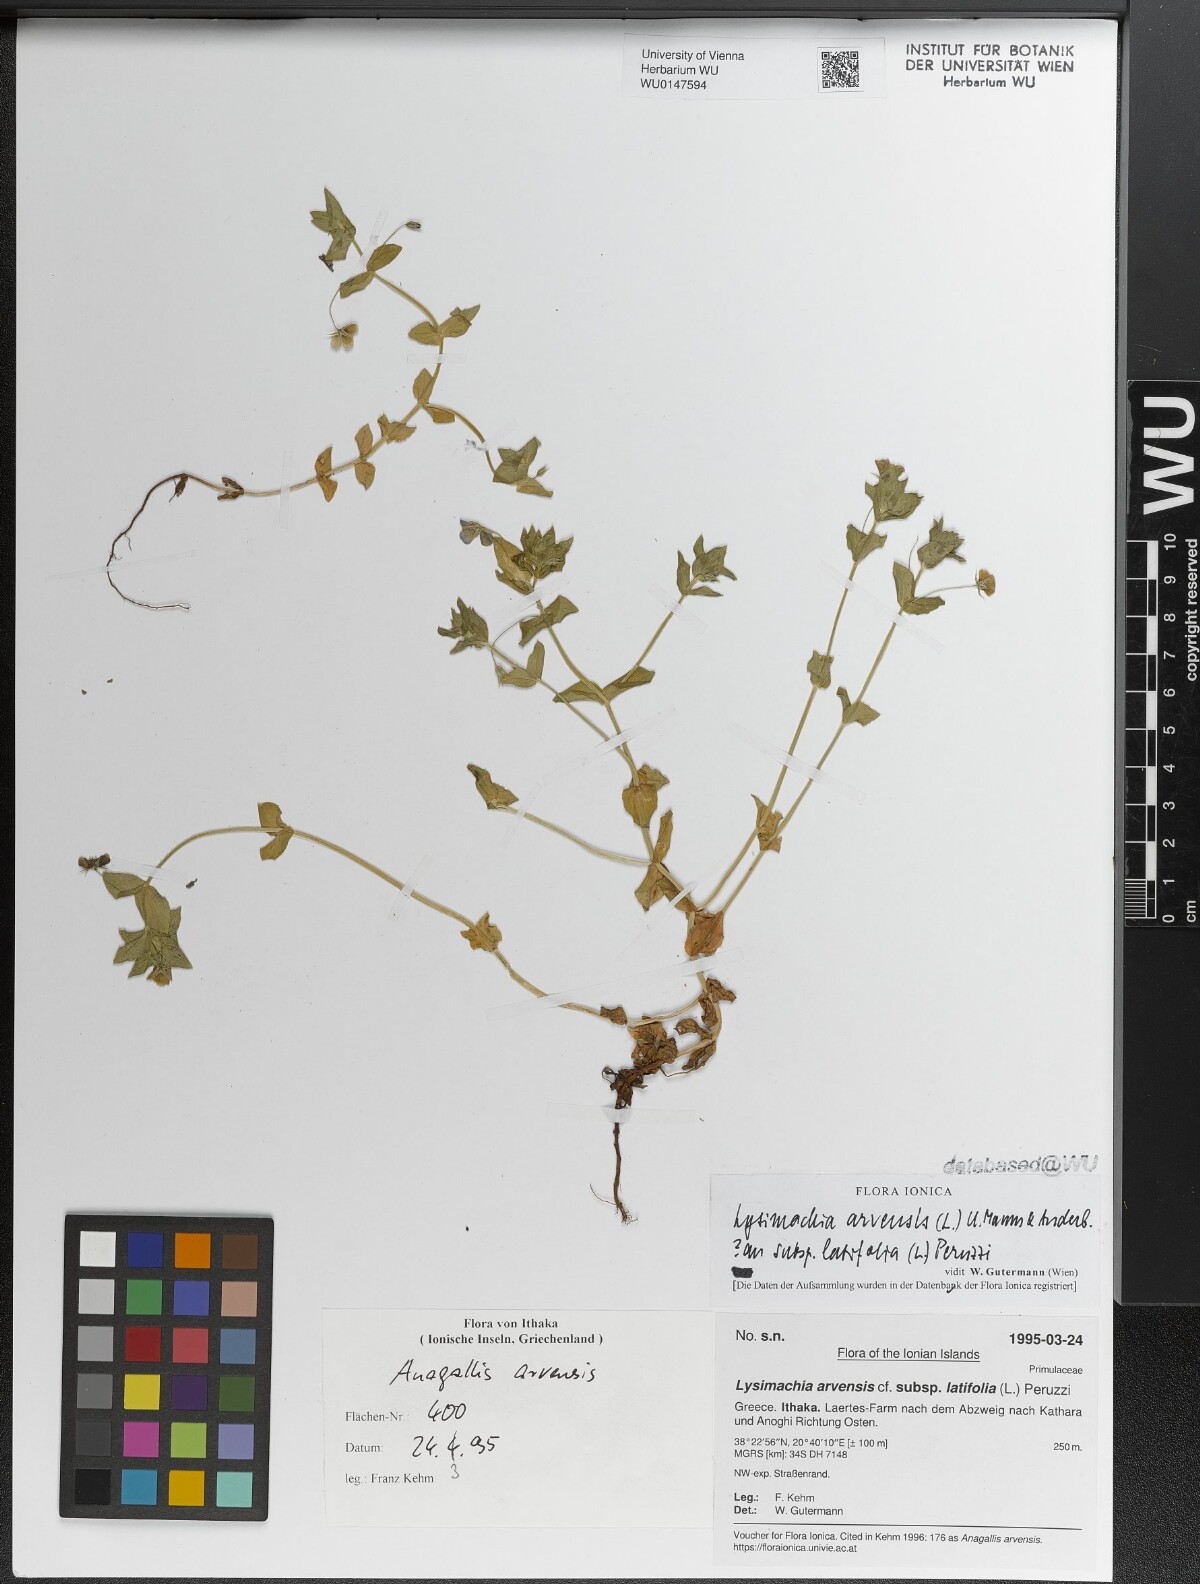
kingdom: Plantae
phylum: Tracheophyta
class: Magnoliopsida
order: Ericales
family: Primulaceae
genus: Lysimachia
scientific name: Lysimachia loeflingii
